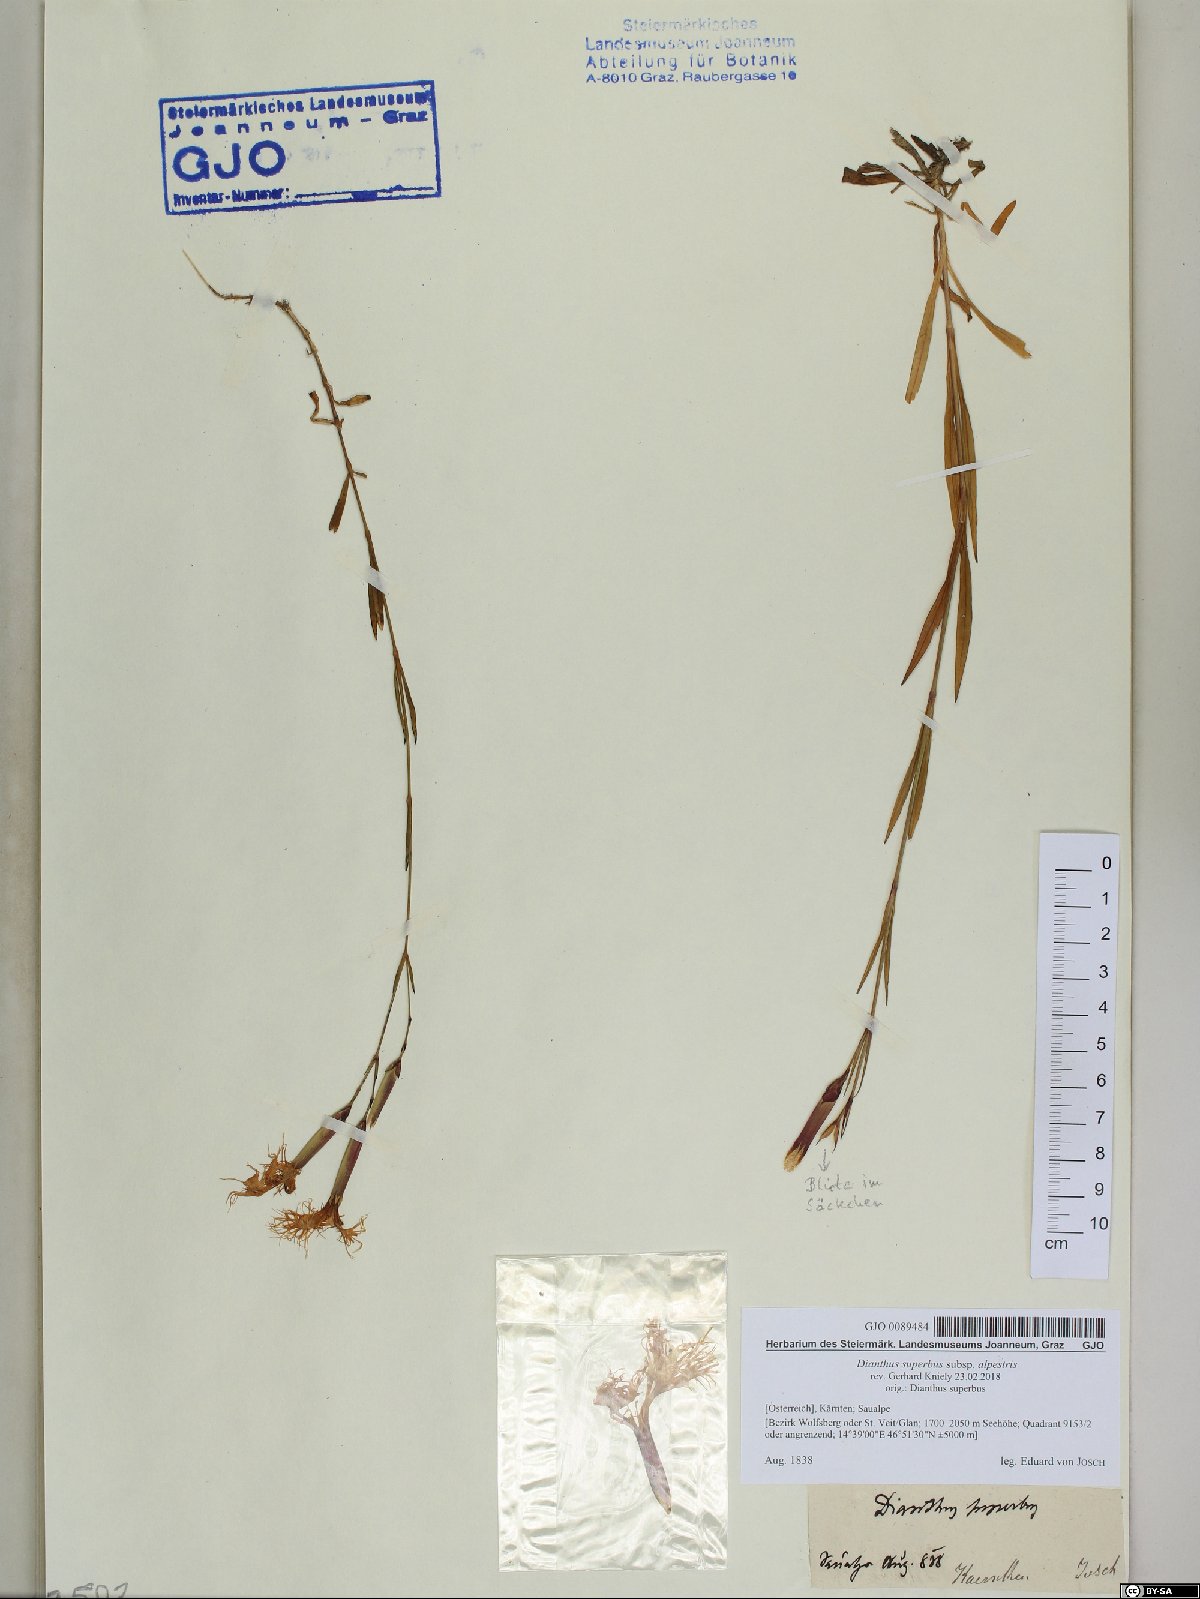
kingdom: Plantae
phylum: Tracheophyta
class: Magnoliopsida
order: Caryophyllales
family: Caryophyllaceae
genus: Dianthus
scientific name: Dianthus superbus
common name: Fringed pink
